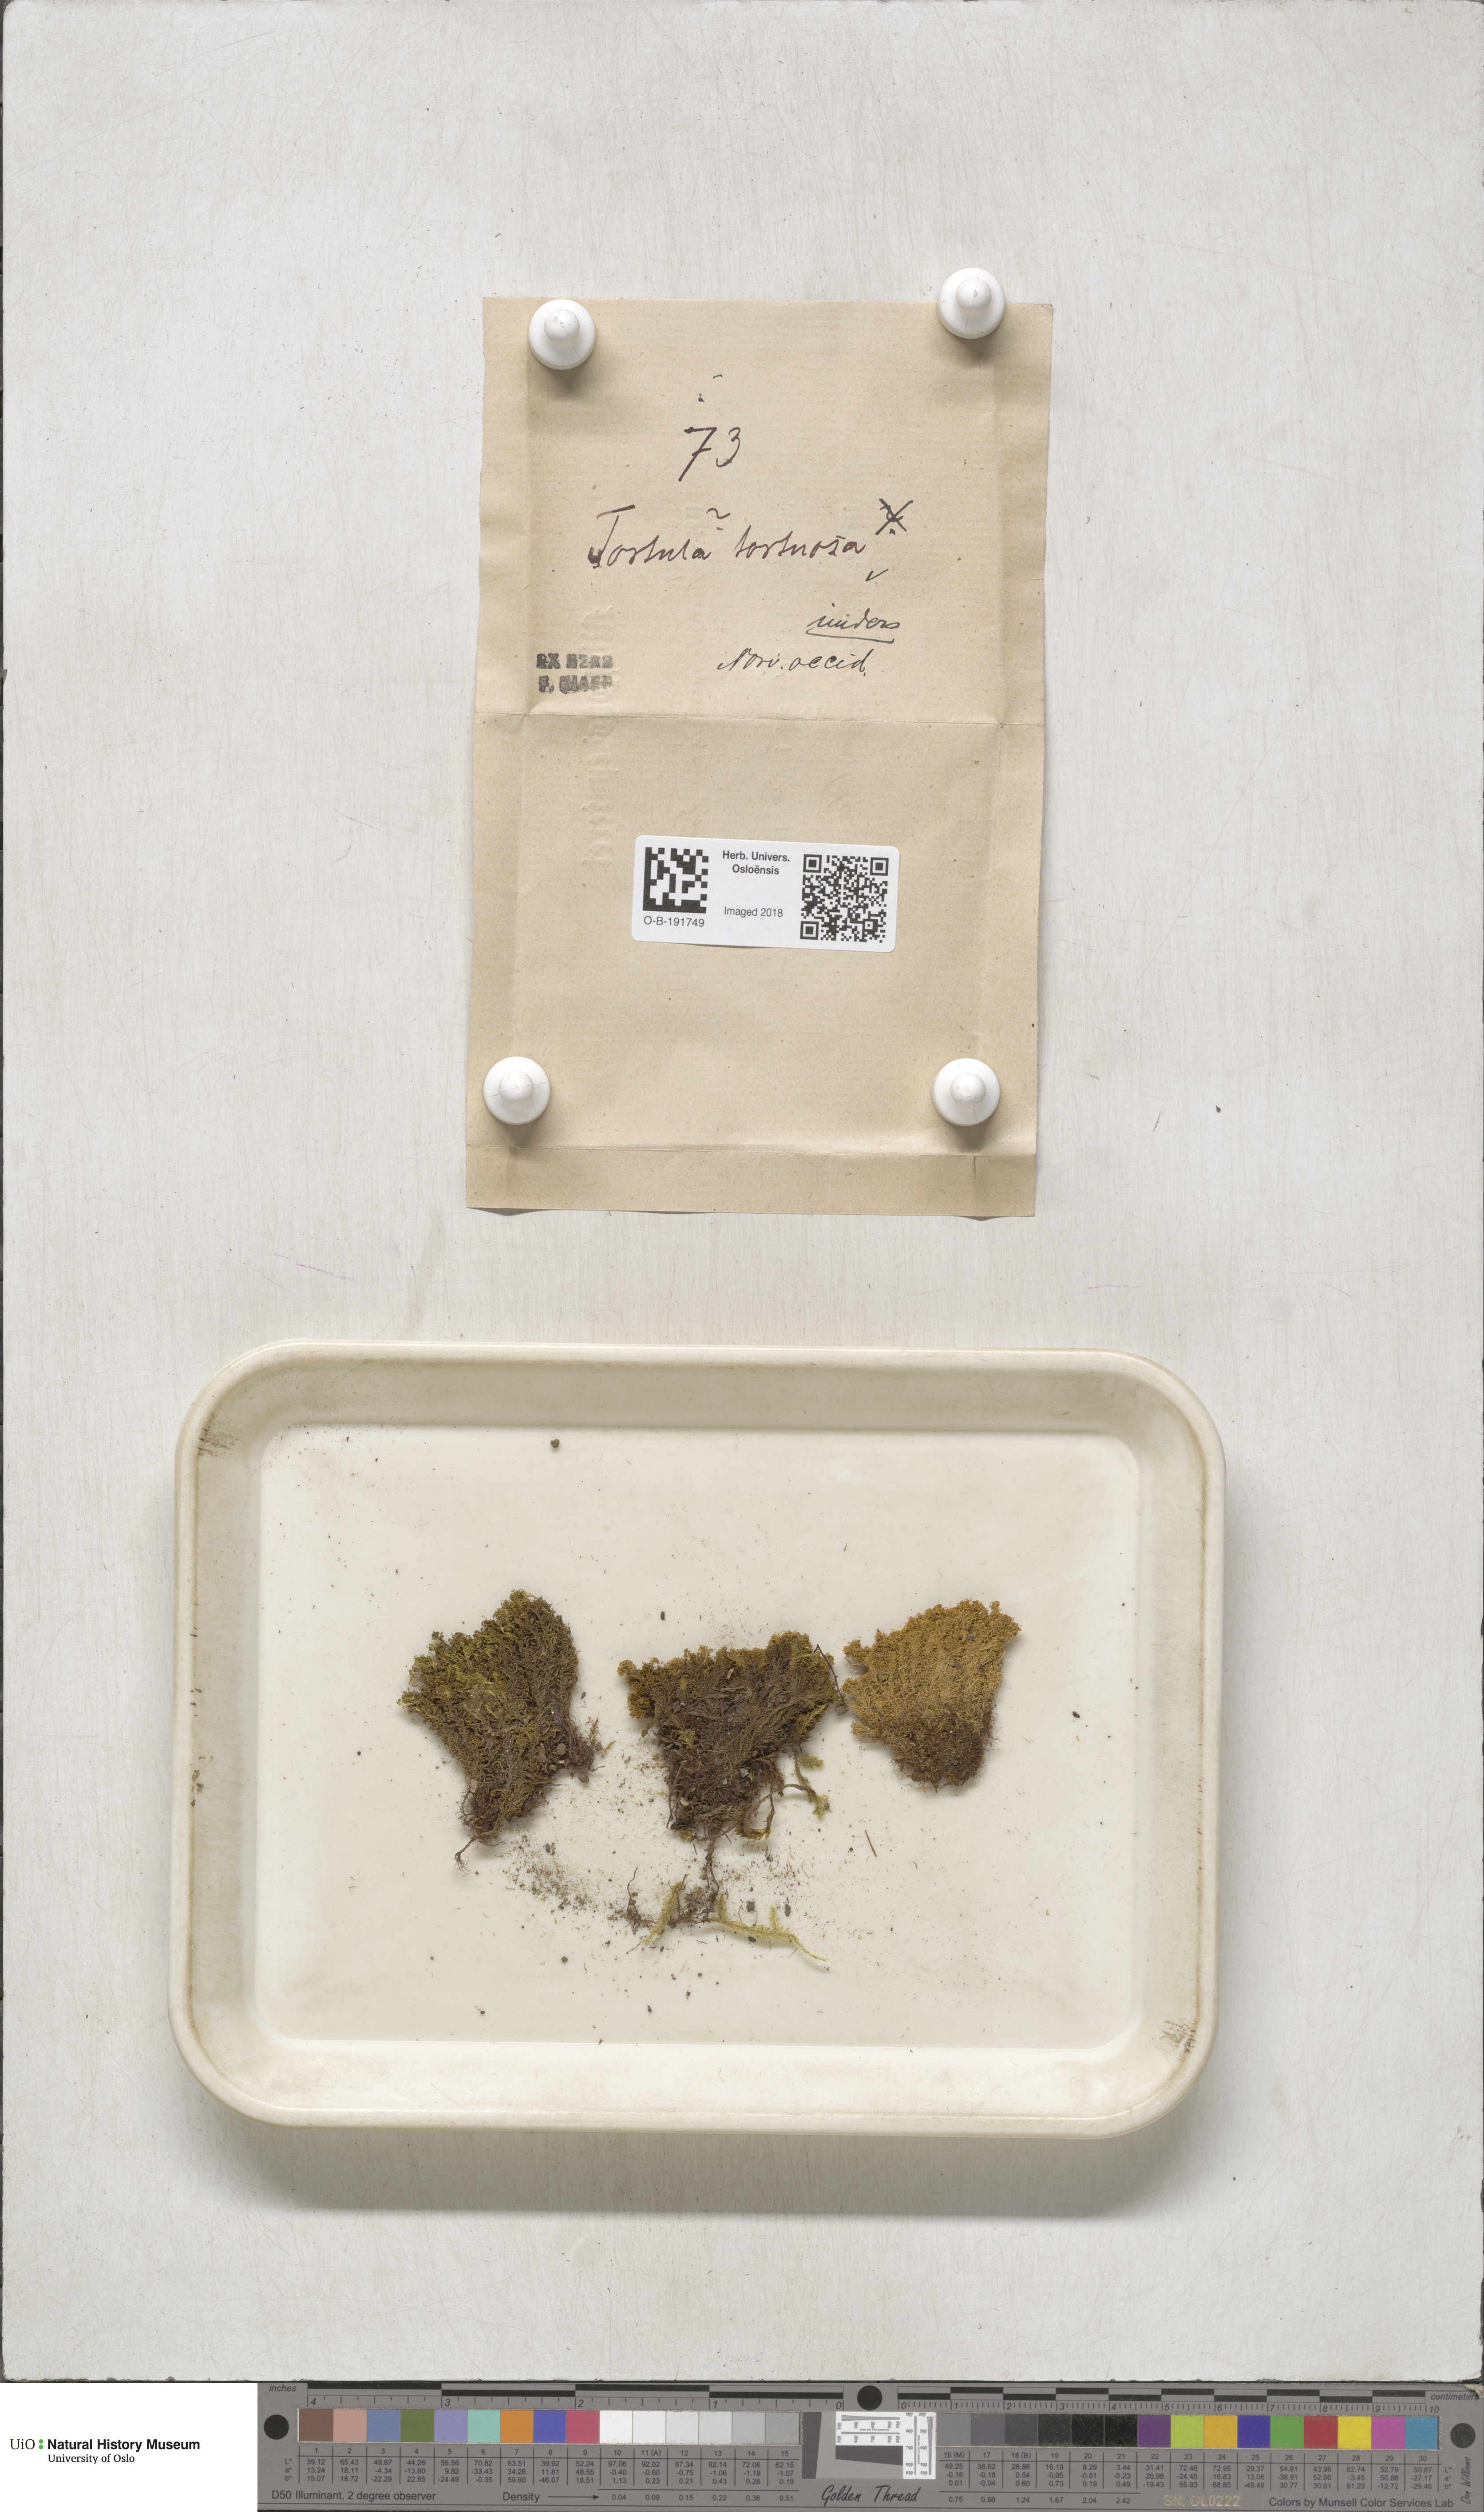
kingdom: Plantae
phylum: Bryophyta
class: Bryopsida
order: Pottiales
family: Pottiaceae
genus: Tortella
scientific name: Tortella tortuosa
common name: Frizzled crisp moss
